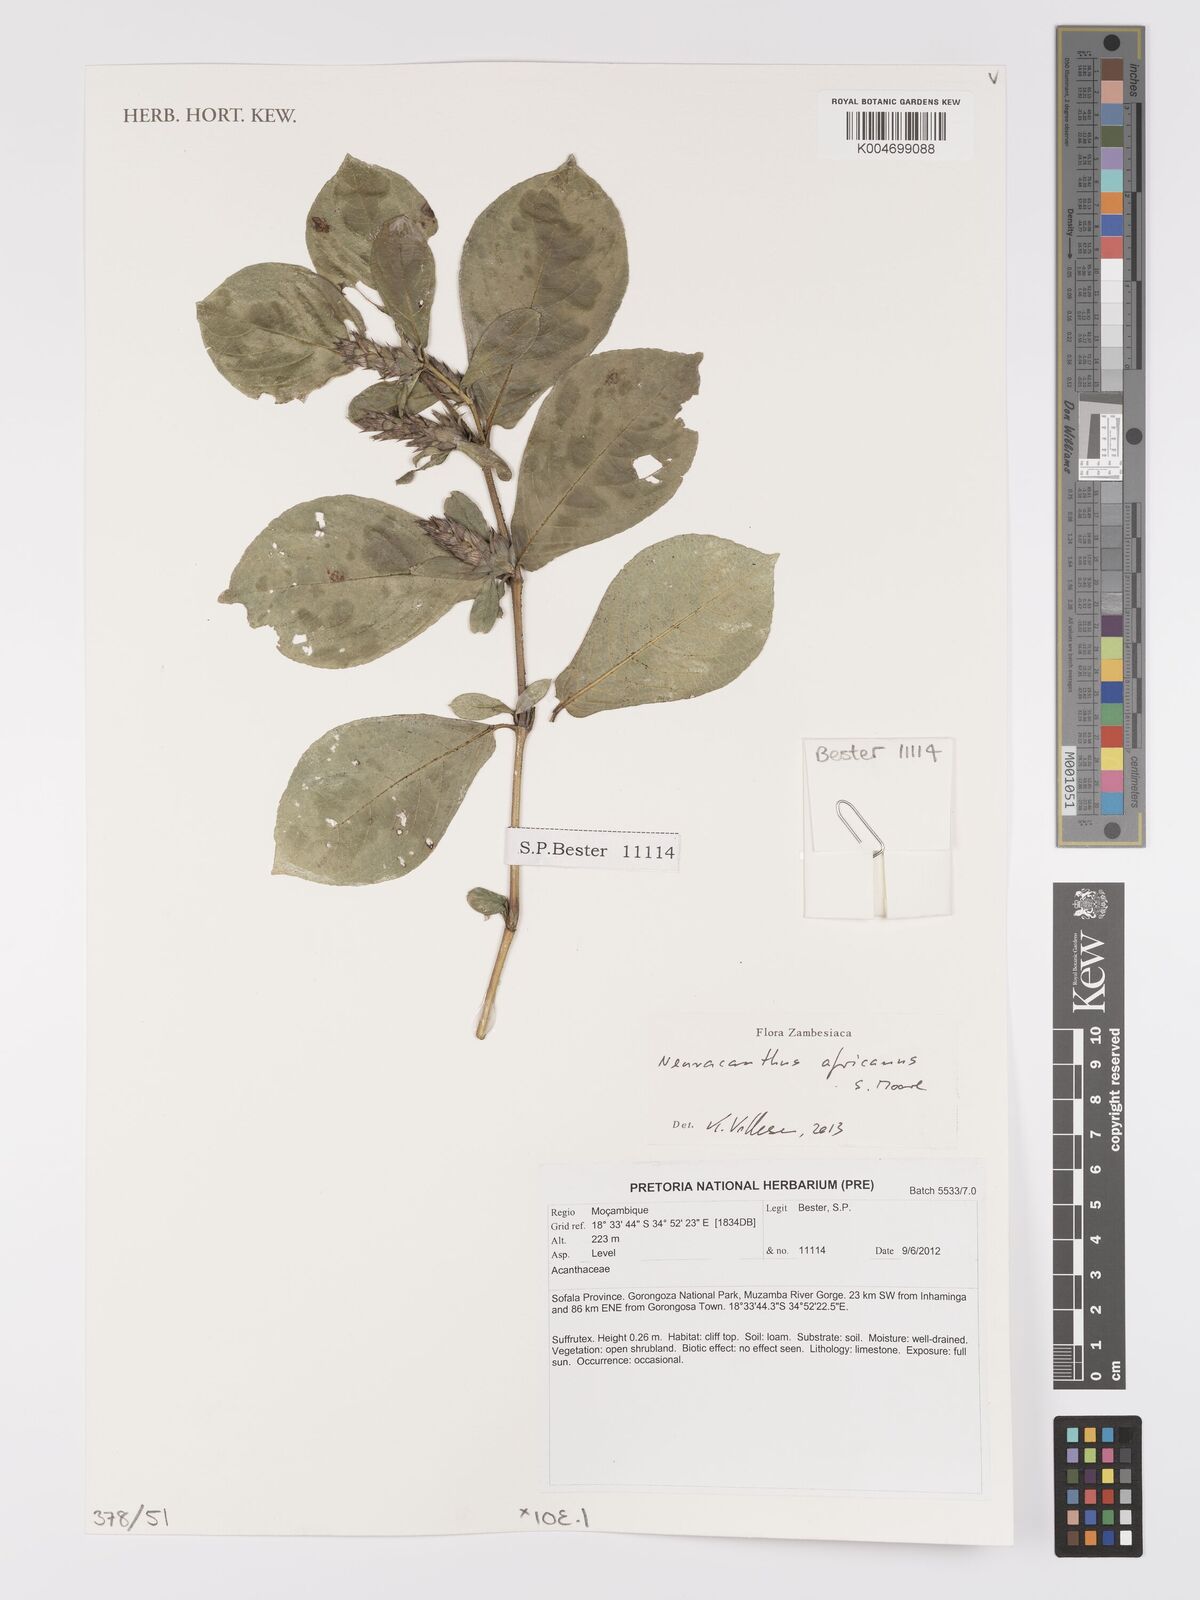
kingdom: Plantae
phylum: Tracheophyta
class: Magnoliopsida
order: Lamiales
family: Acanthaceae
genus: Neuracanthus
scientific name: Neuracanthus africanus
